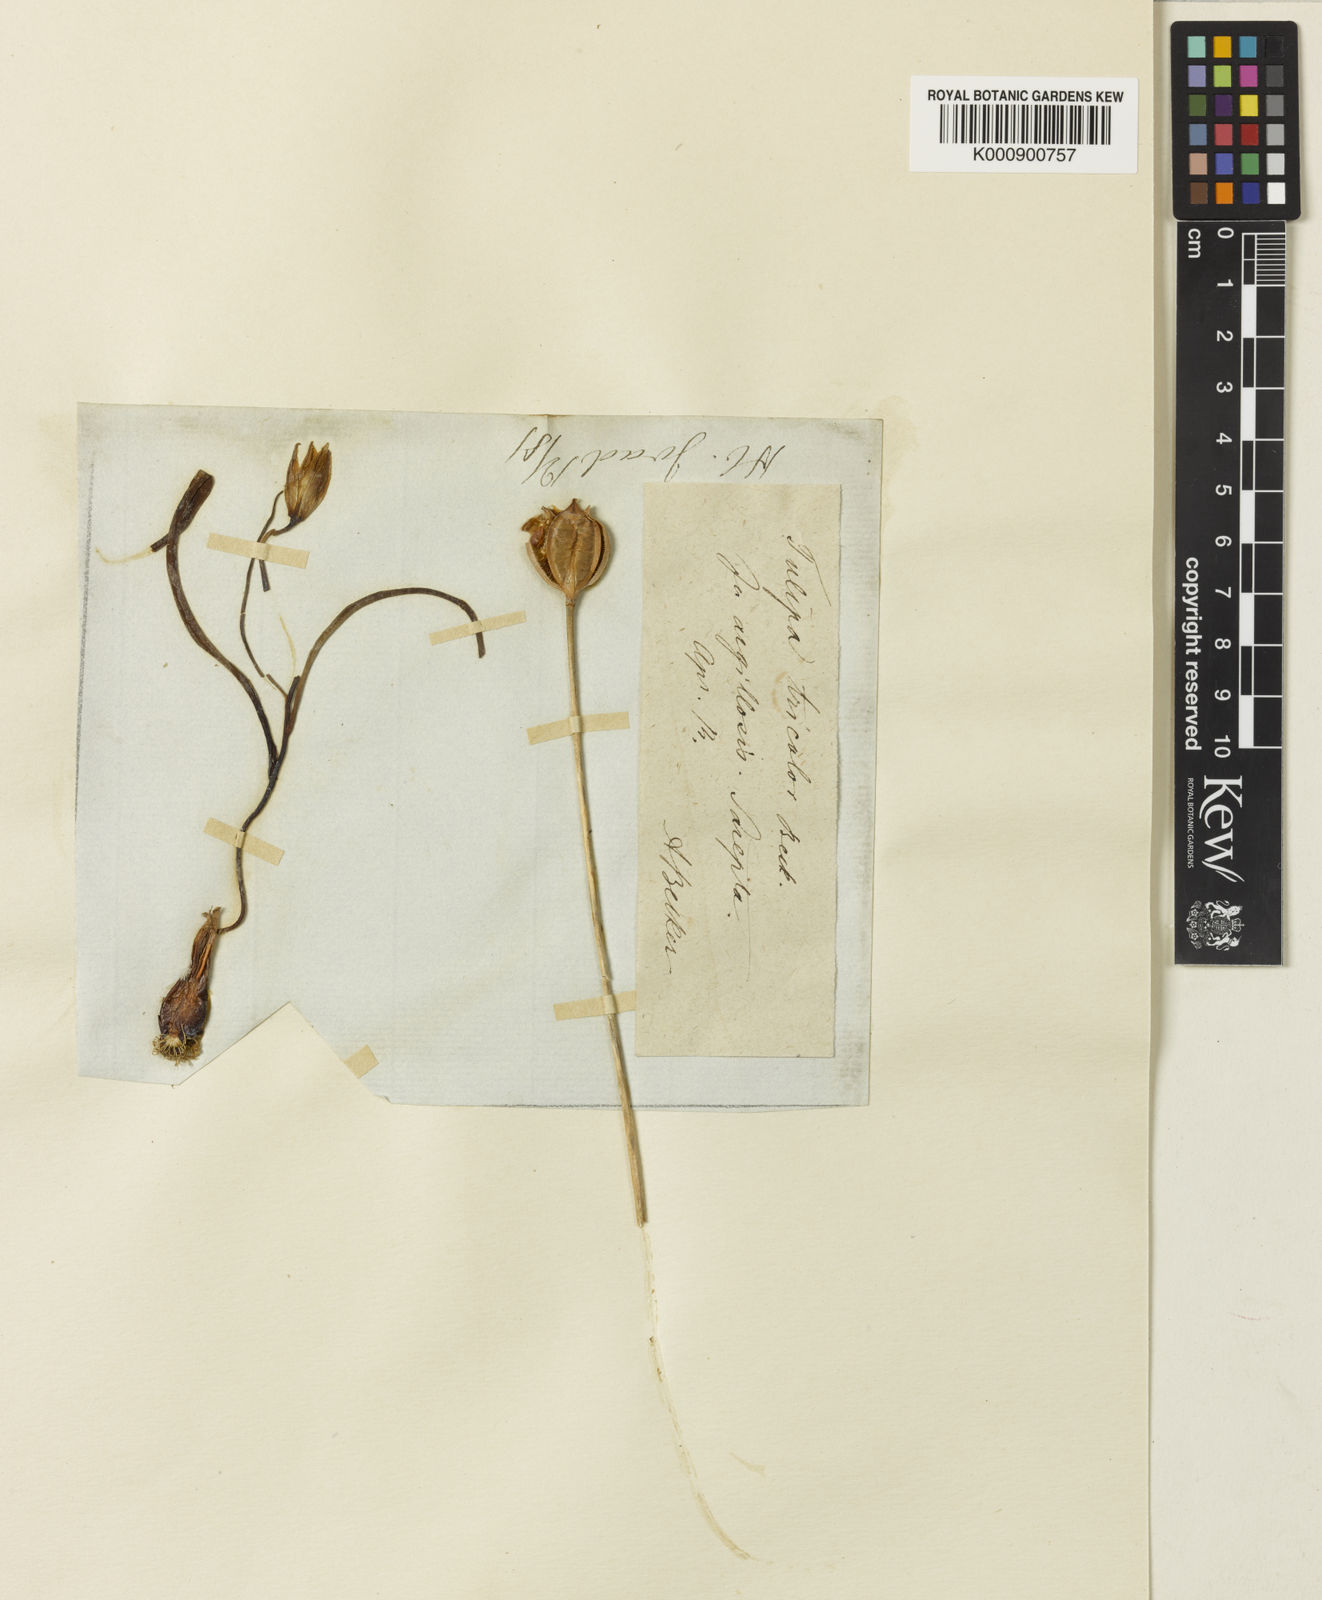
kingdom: Plantae
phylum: Tracheophyta
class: Liliopsida
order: Liliales
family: Liliaceae
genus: Tulipa
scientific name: Tulipa sylvestris
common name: Wild tulip
